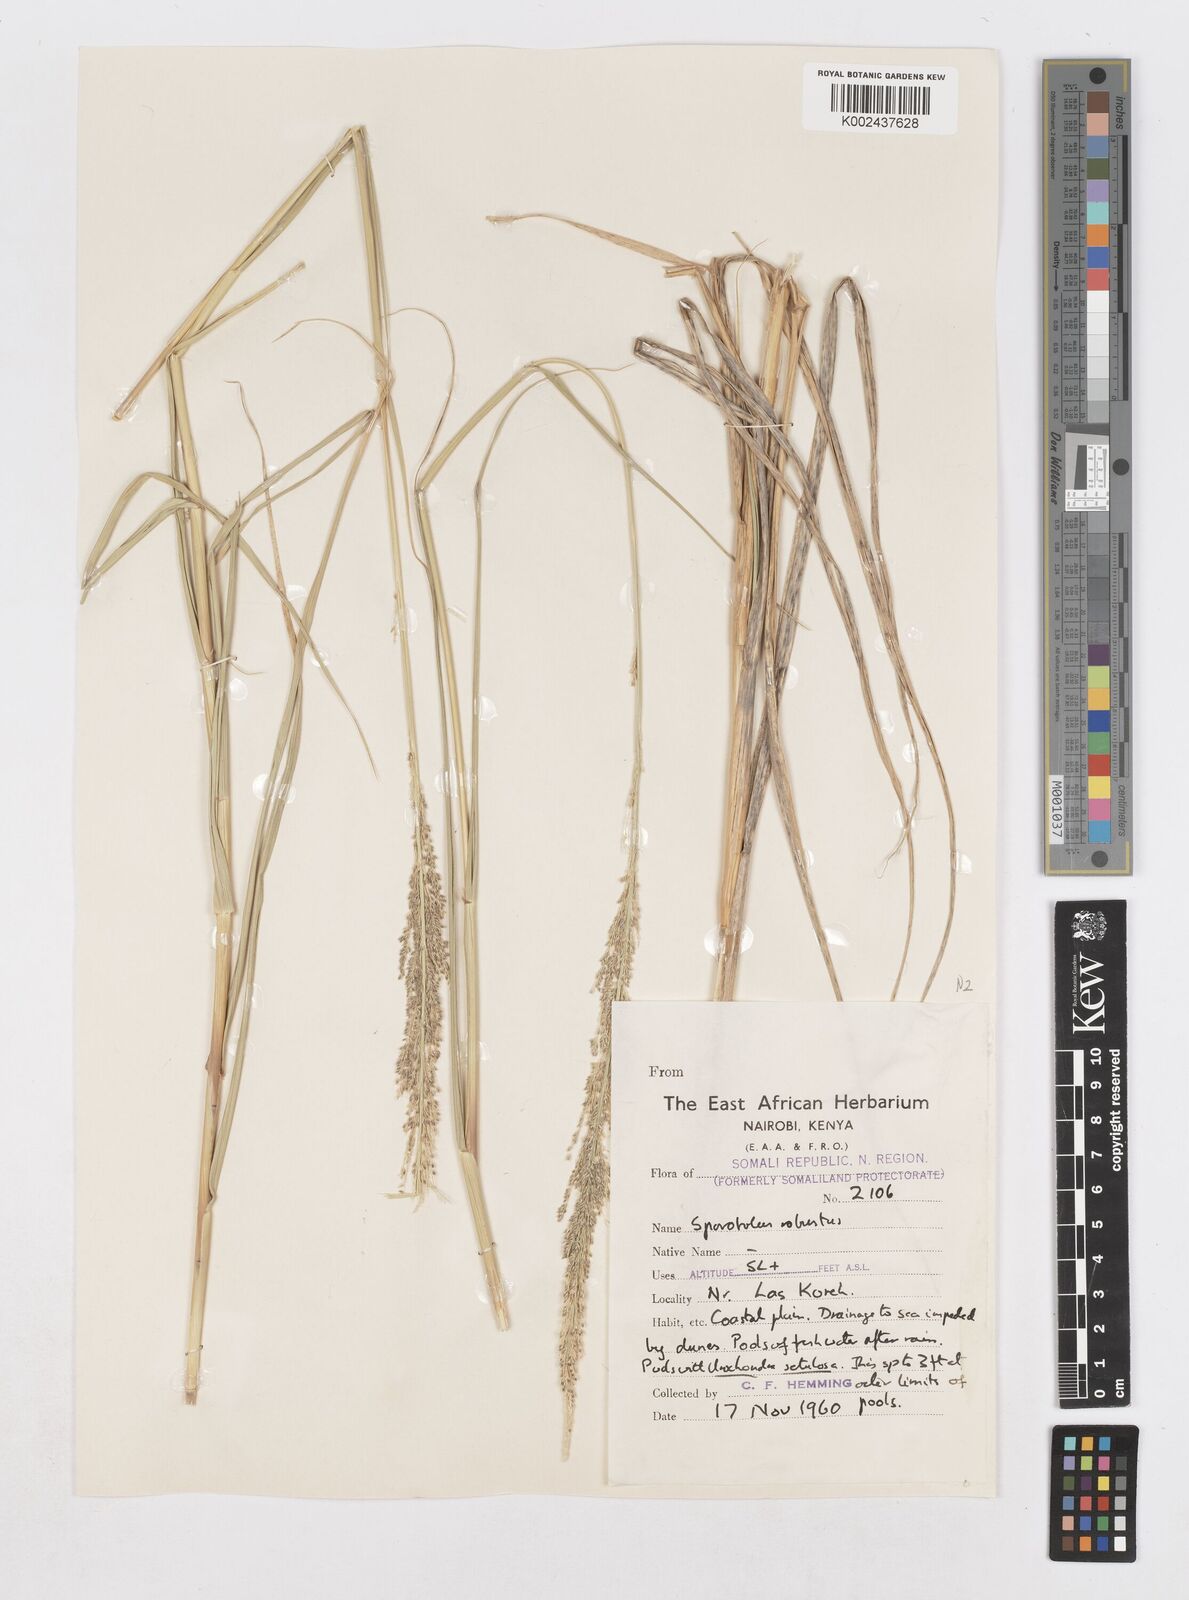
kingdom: Plantae
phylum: Tracheophyta
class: Liliopsida
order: Poales
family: Poaceae
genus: Sporobolus
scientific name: Sporobolus consimilis
